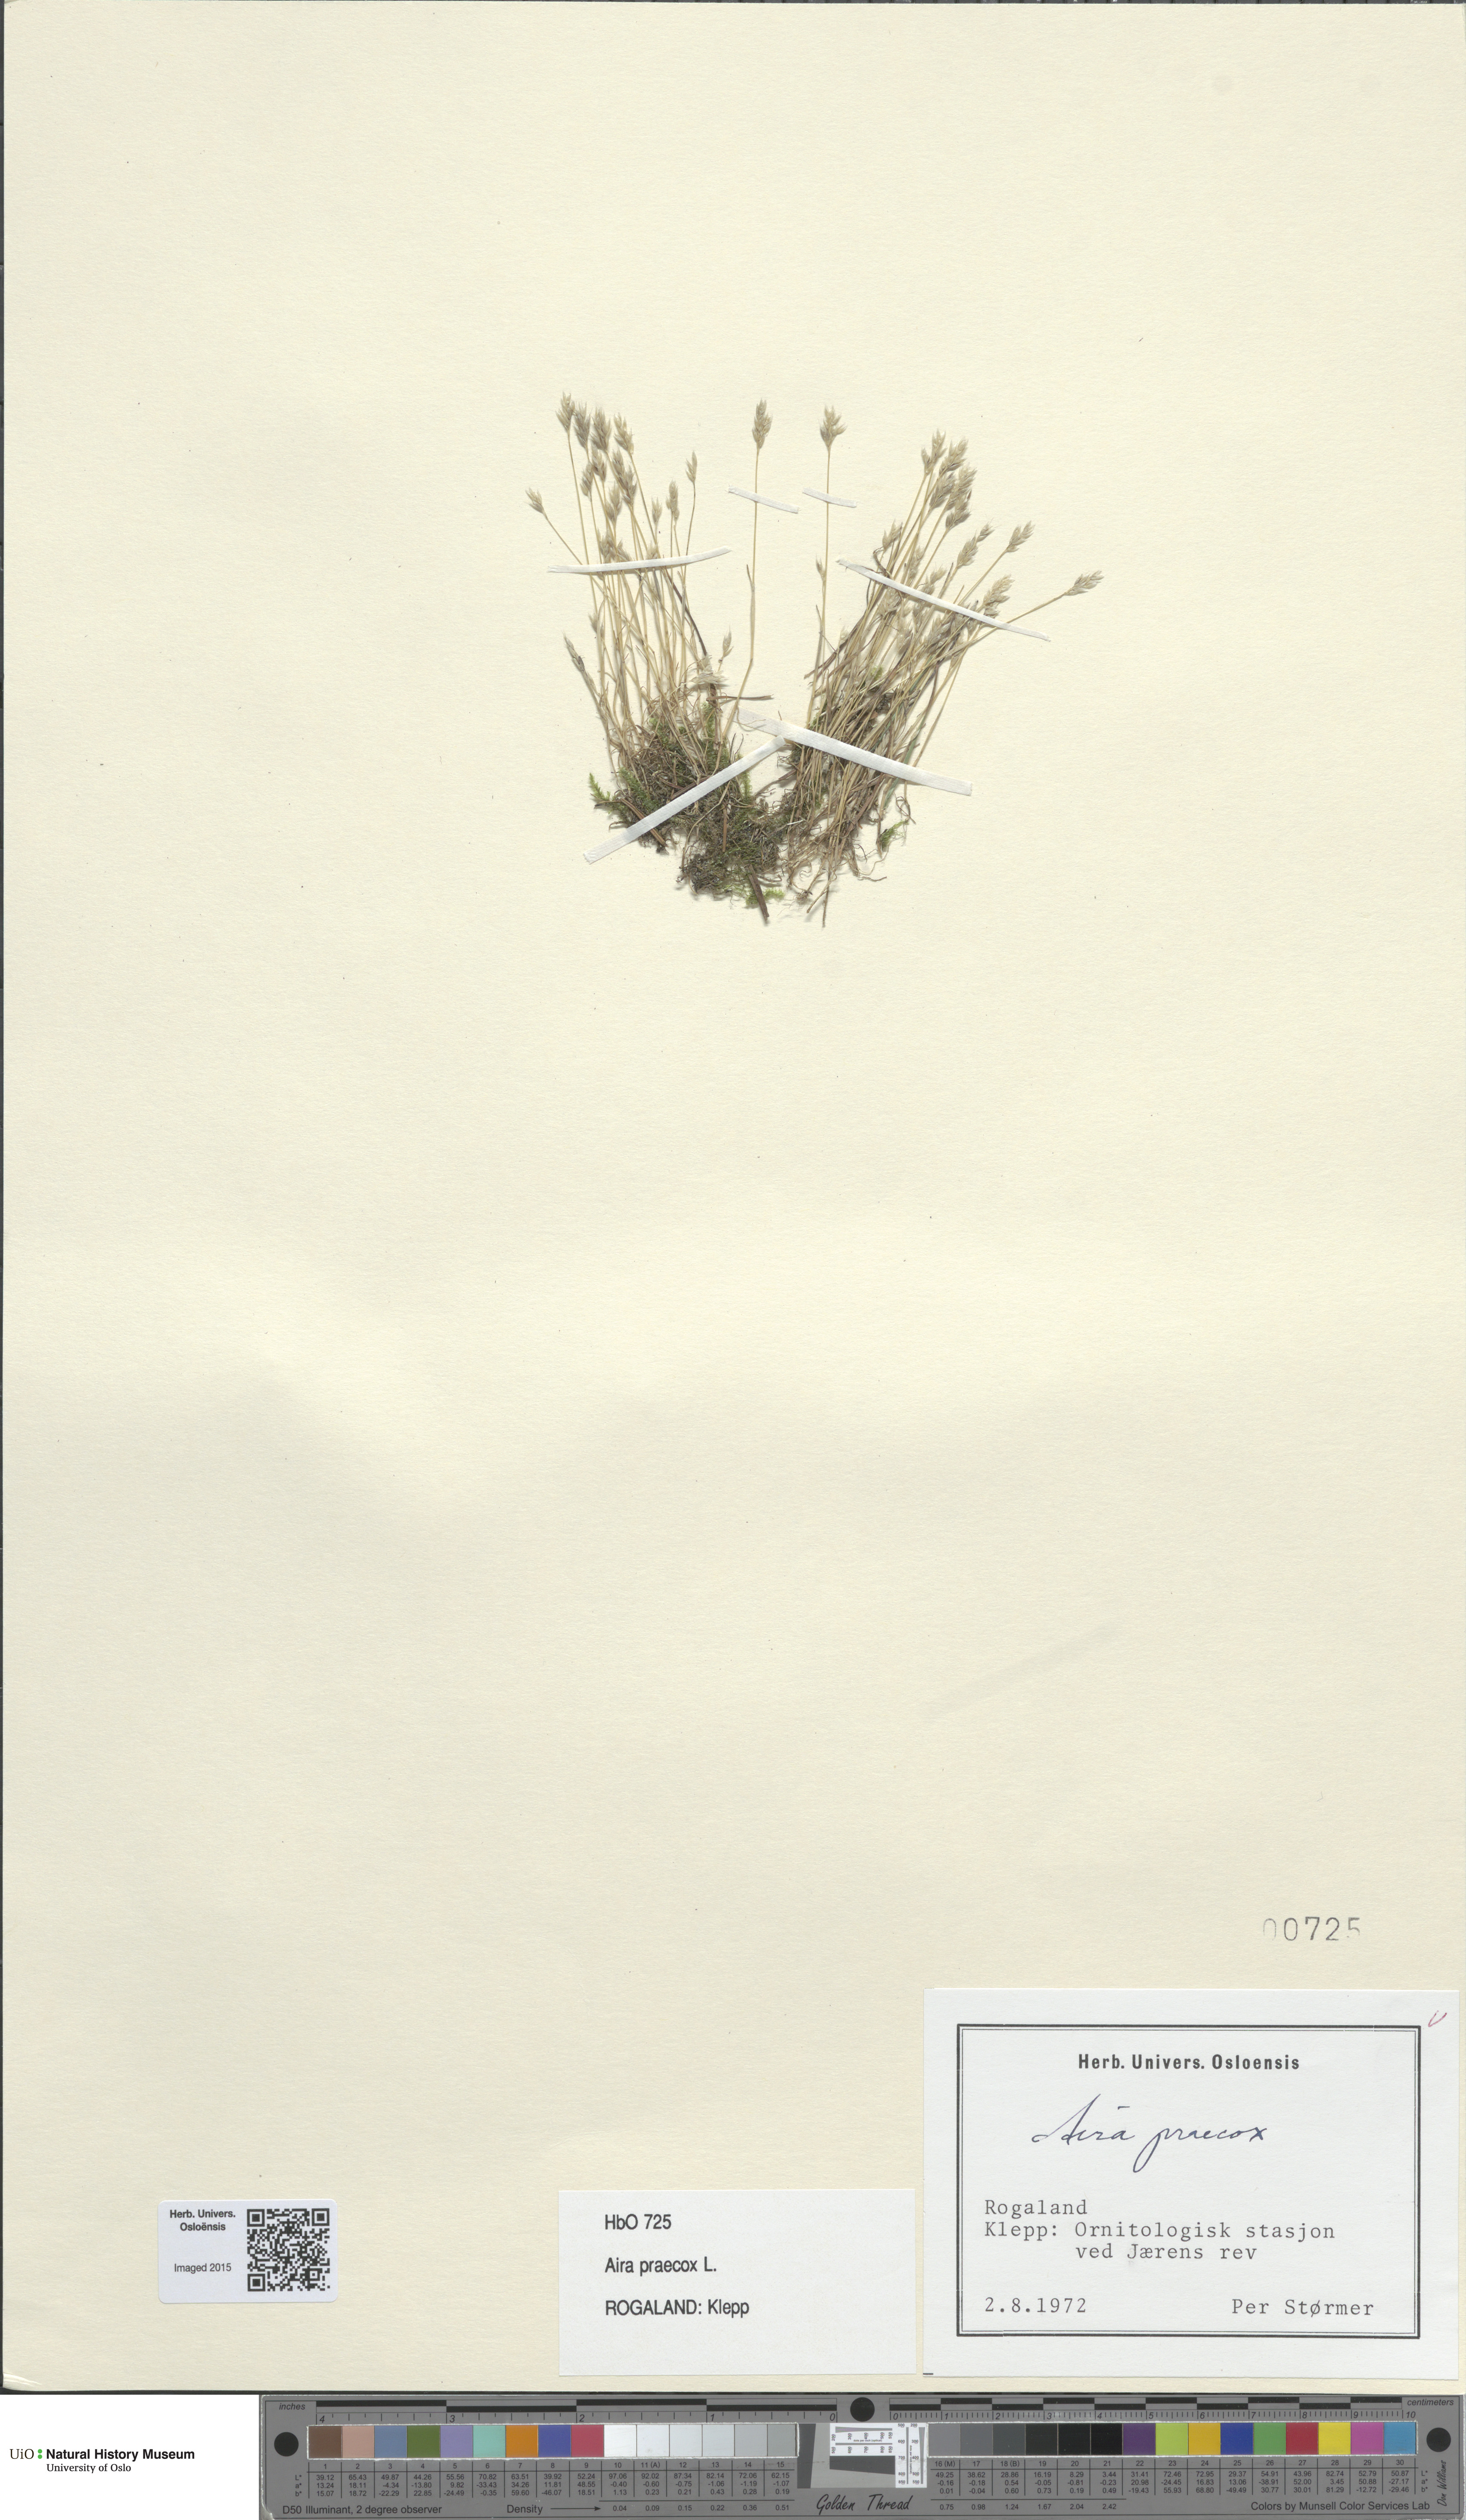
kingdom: Plantae
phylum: Tracheophyta
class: Liliopsida
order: Poales
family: Poaceae
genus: Aira
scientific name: Aira praecox
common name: Early hair-grass
